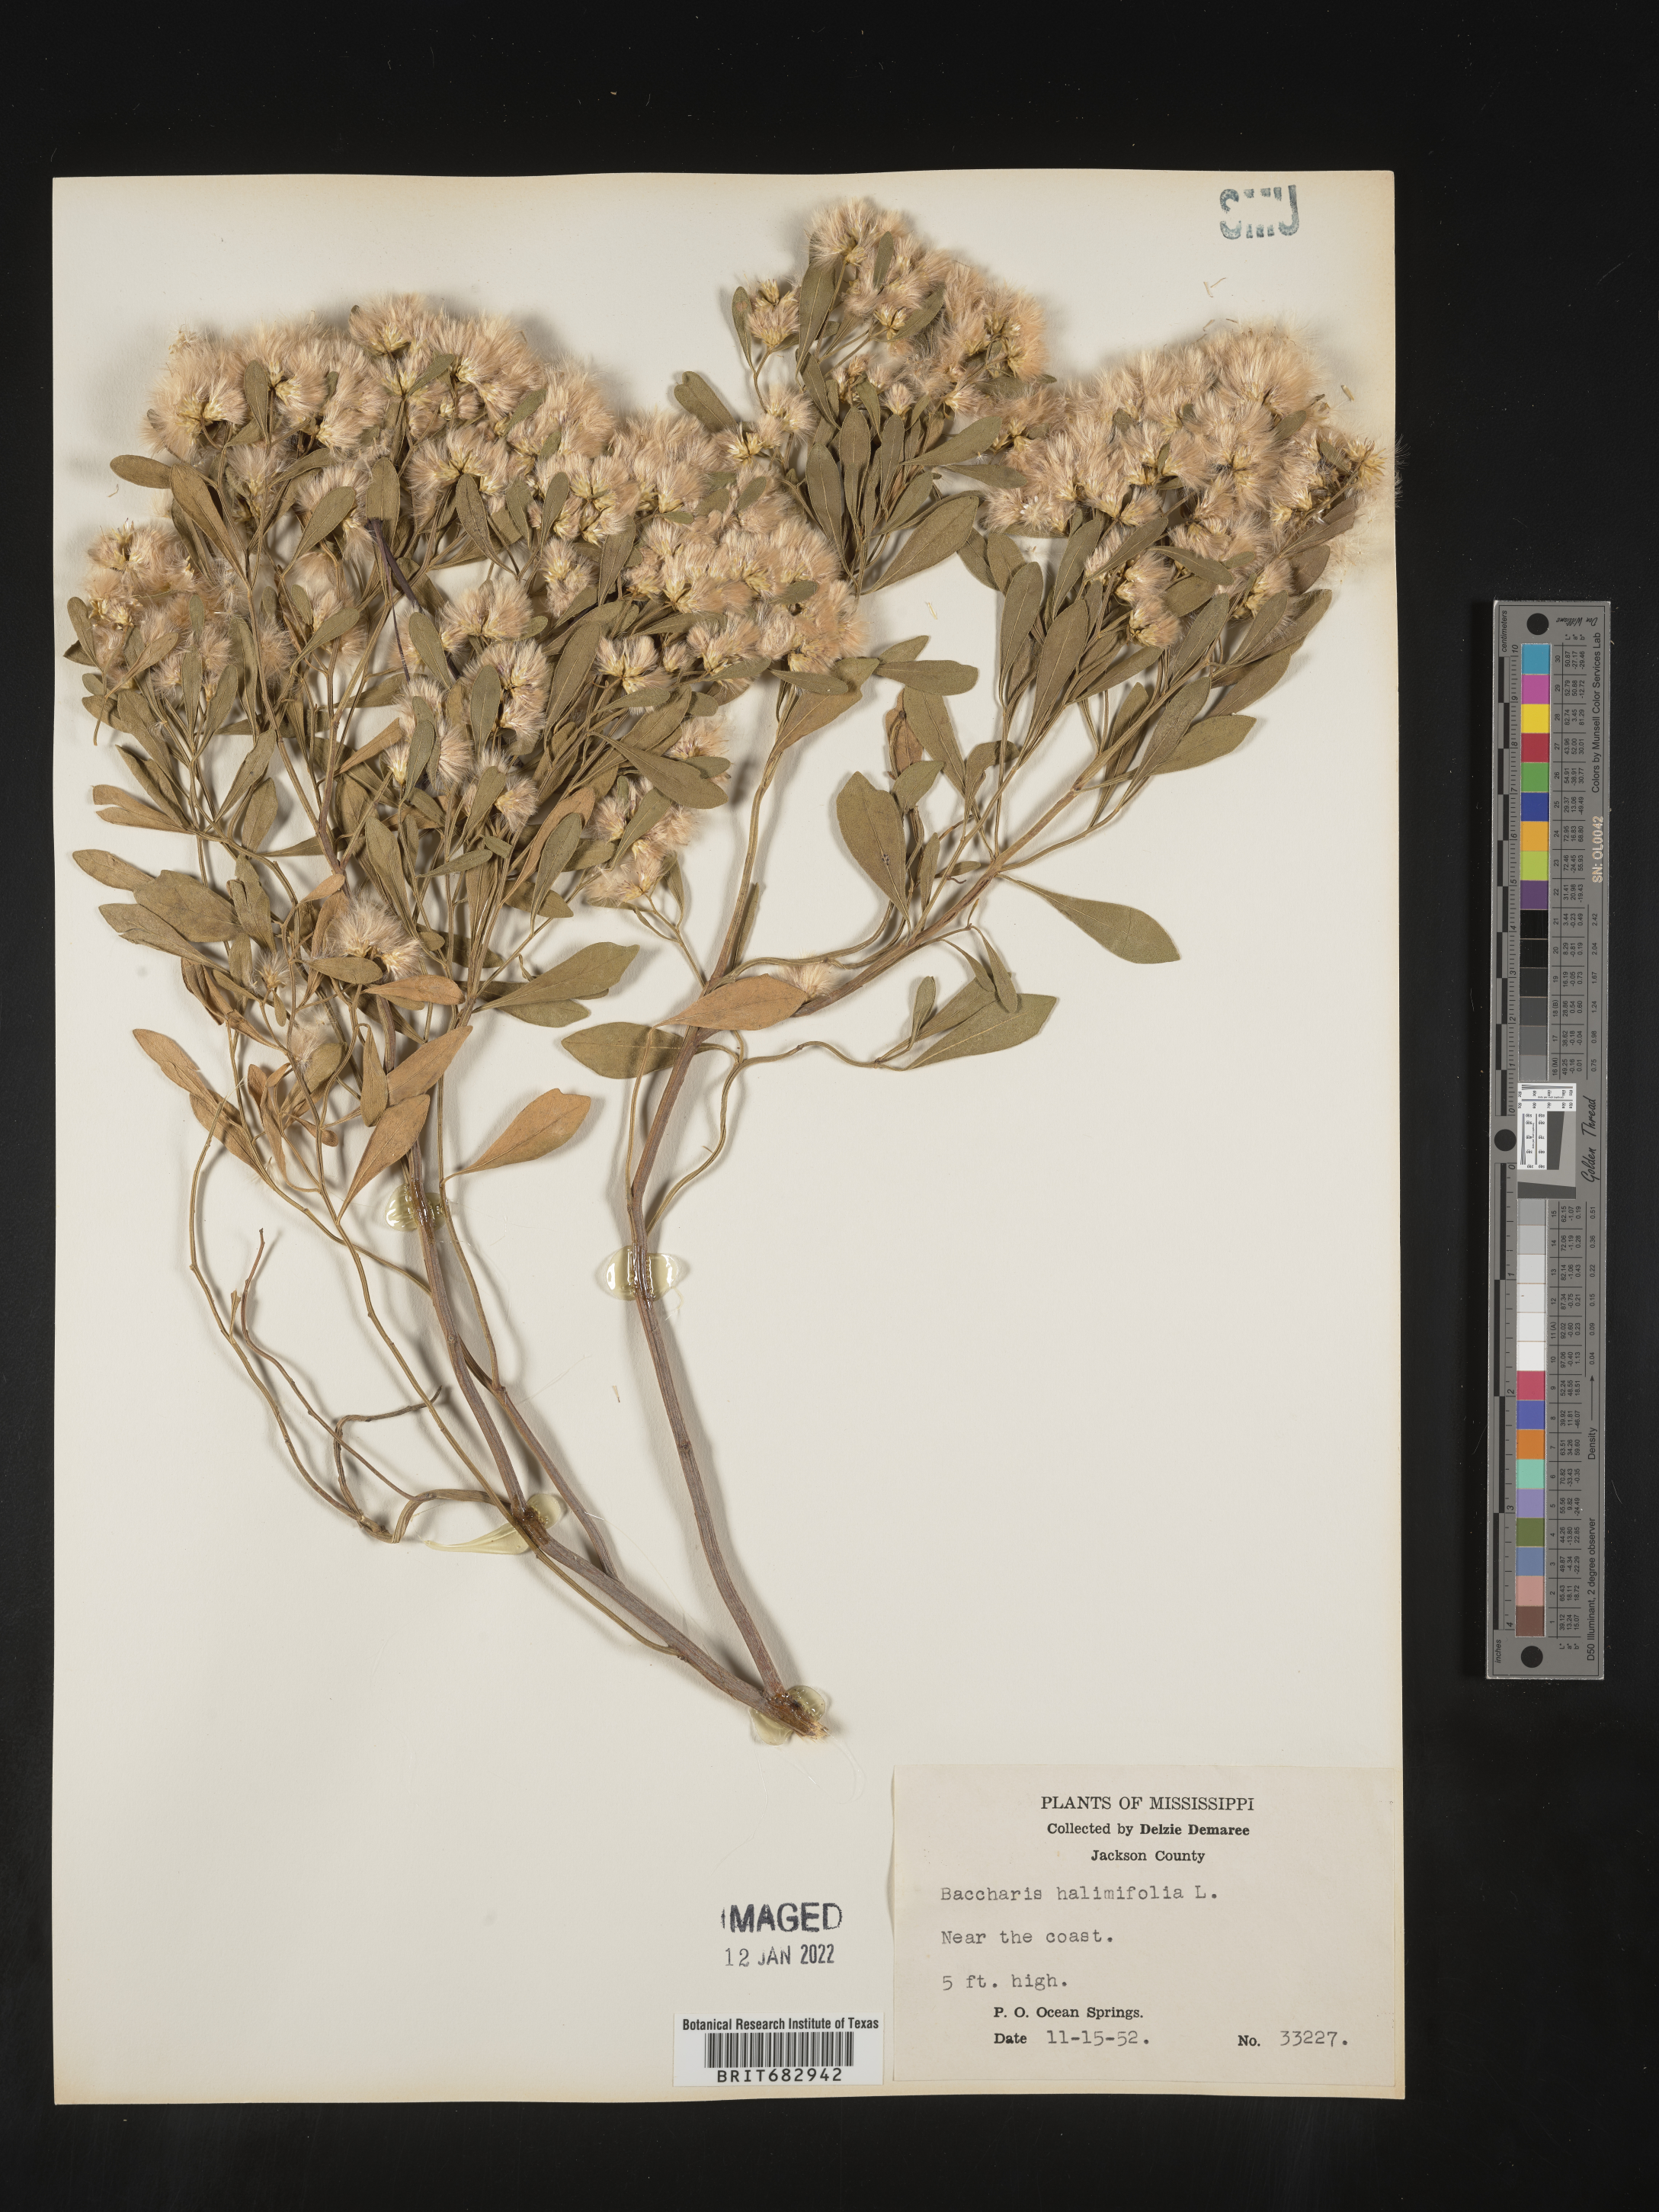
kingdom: Plantae
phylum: Tracheophyta
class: Magnoliopsida
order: Asterales
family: Asteraceae
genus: Nidorella
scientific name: Nidorella ivifolia
